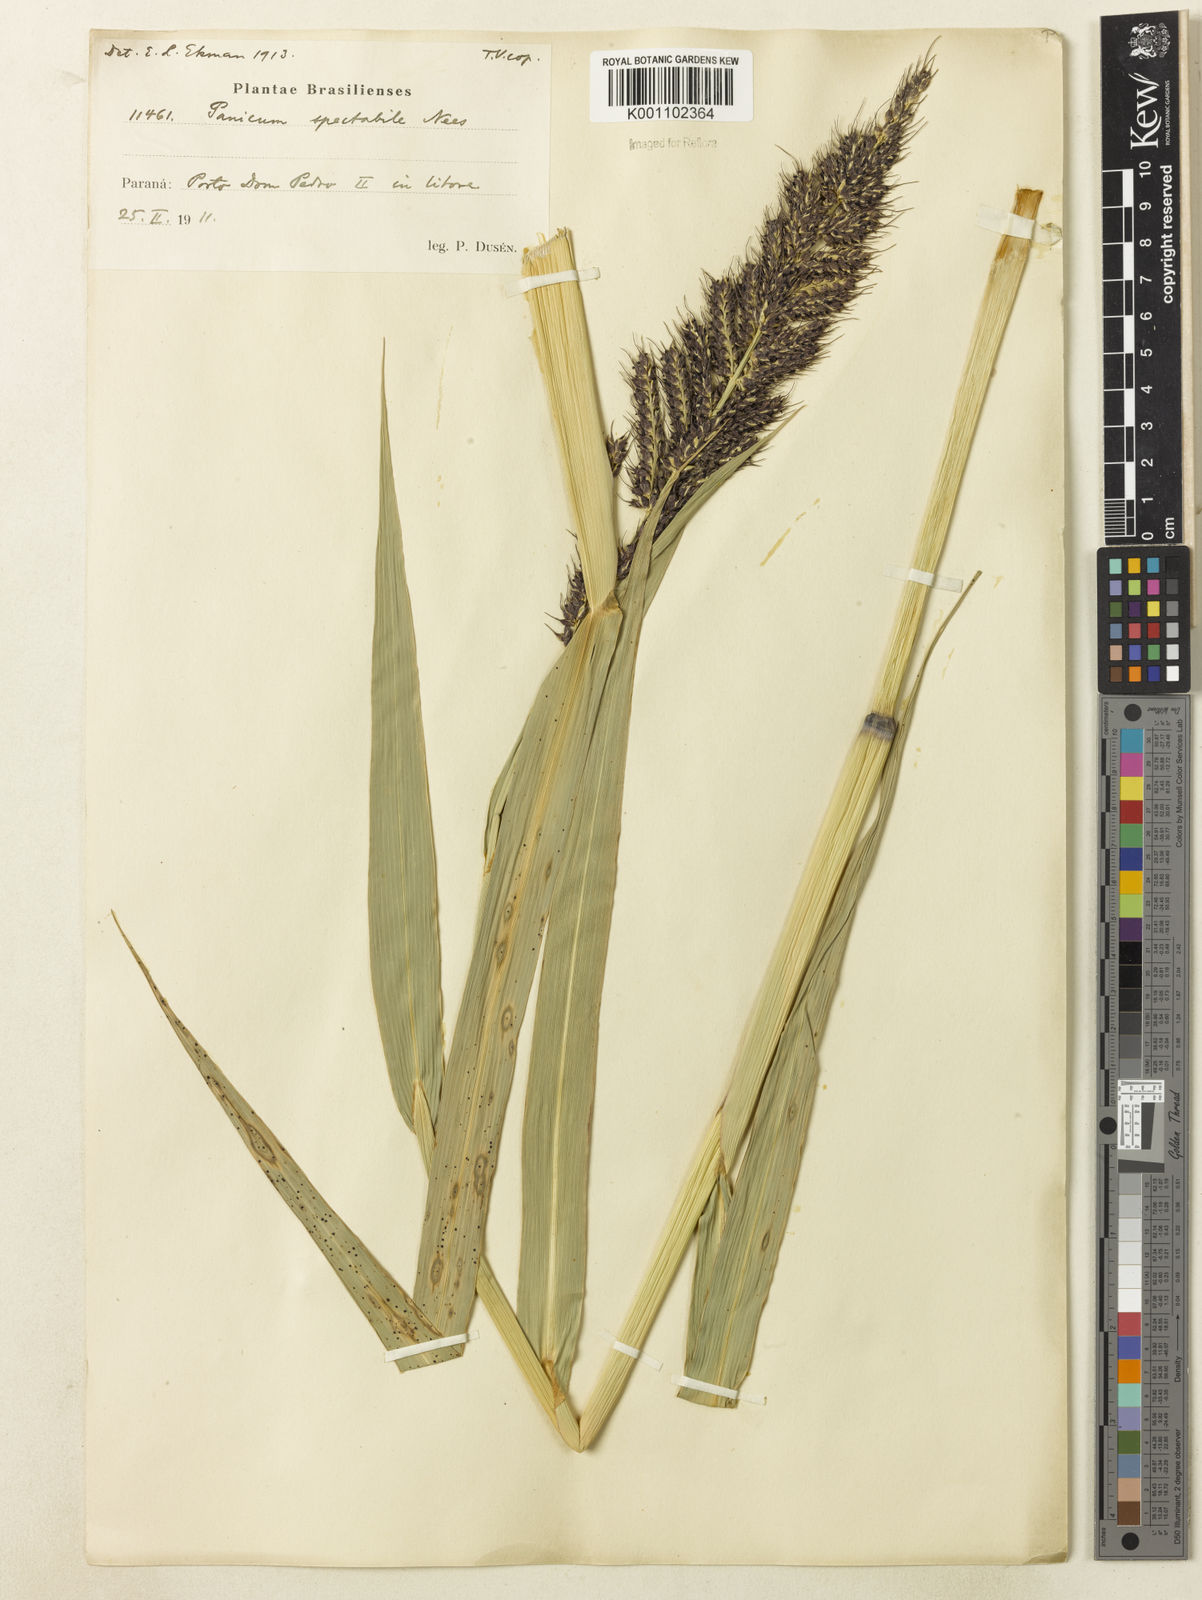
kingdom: Plantae
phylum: Tracheophyta
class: Liliopsida
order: Poales
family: Poaceae
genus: Echinochloa
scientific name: Echinochloa polystachya
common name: Creeping river grass
